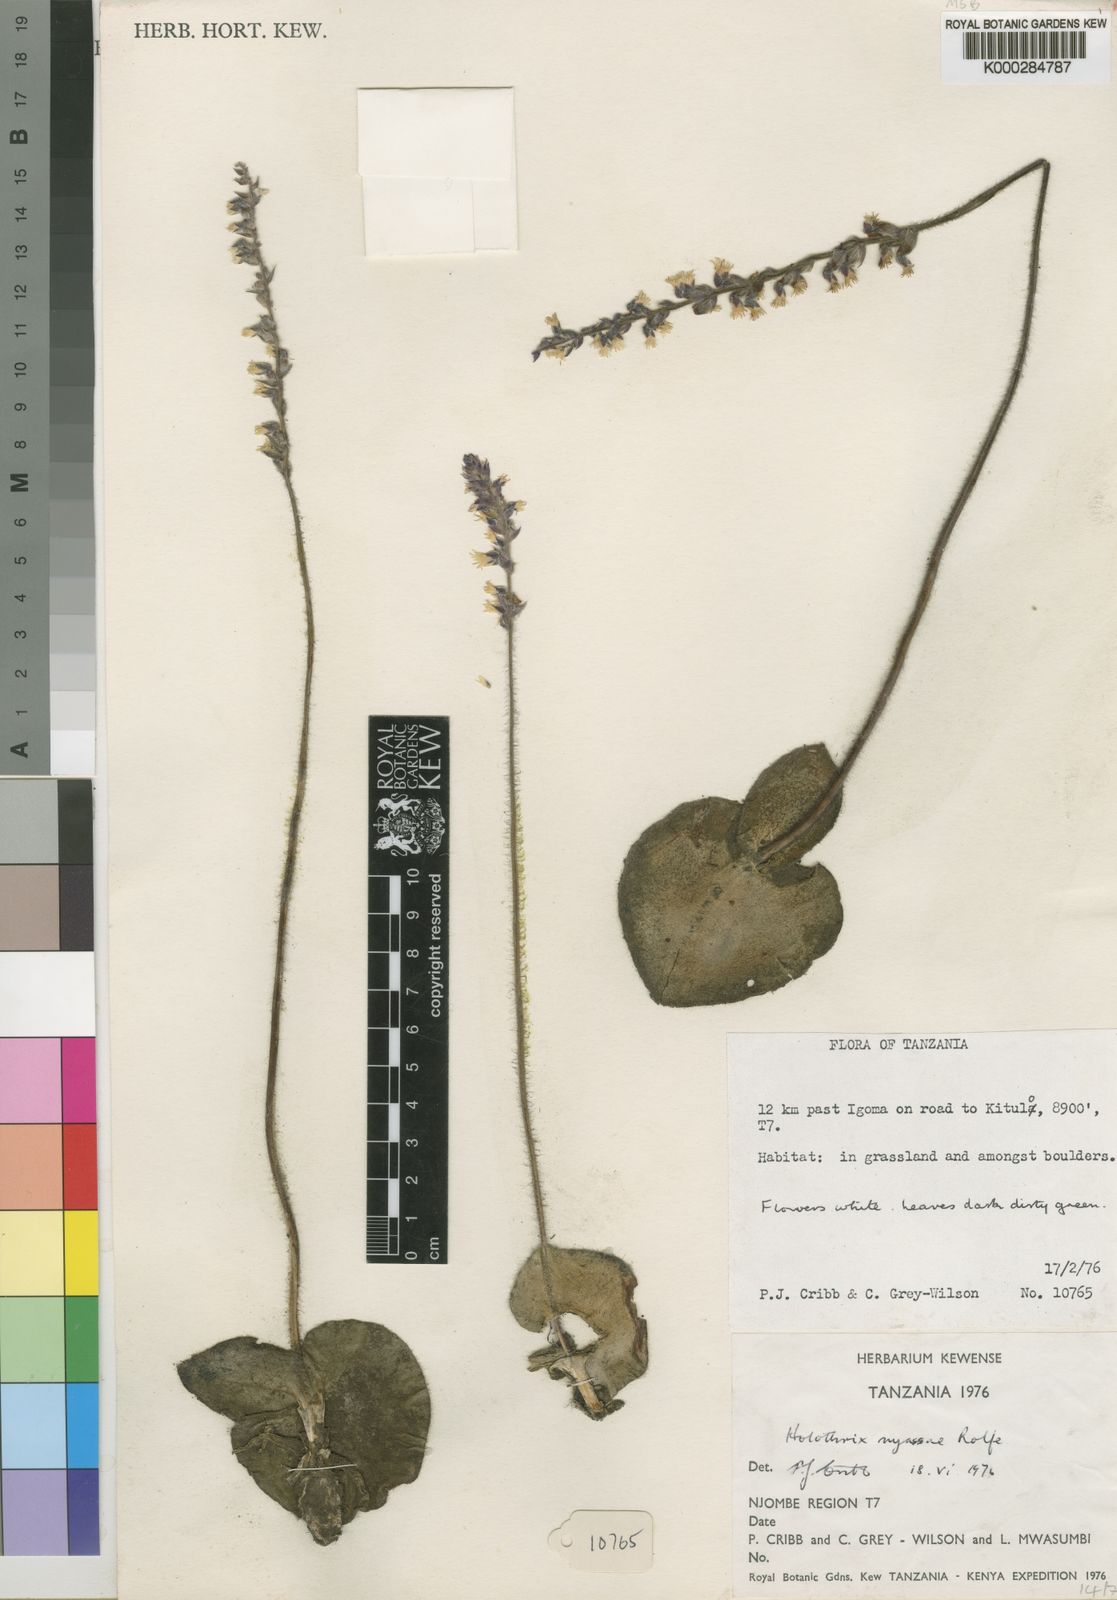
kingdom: Plantae
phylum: Tracheophyta
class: Liliopsida
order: Asparagales
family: Orchidaceae
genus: Holothrix
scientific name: Holothrix nyasae
